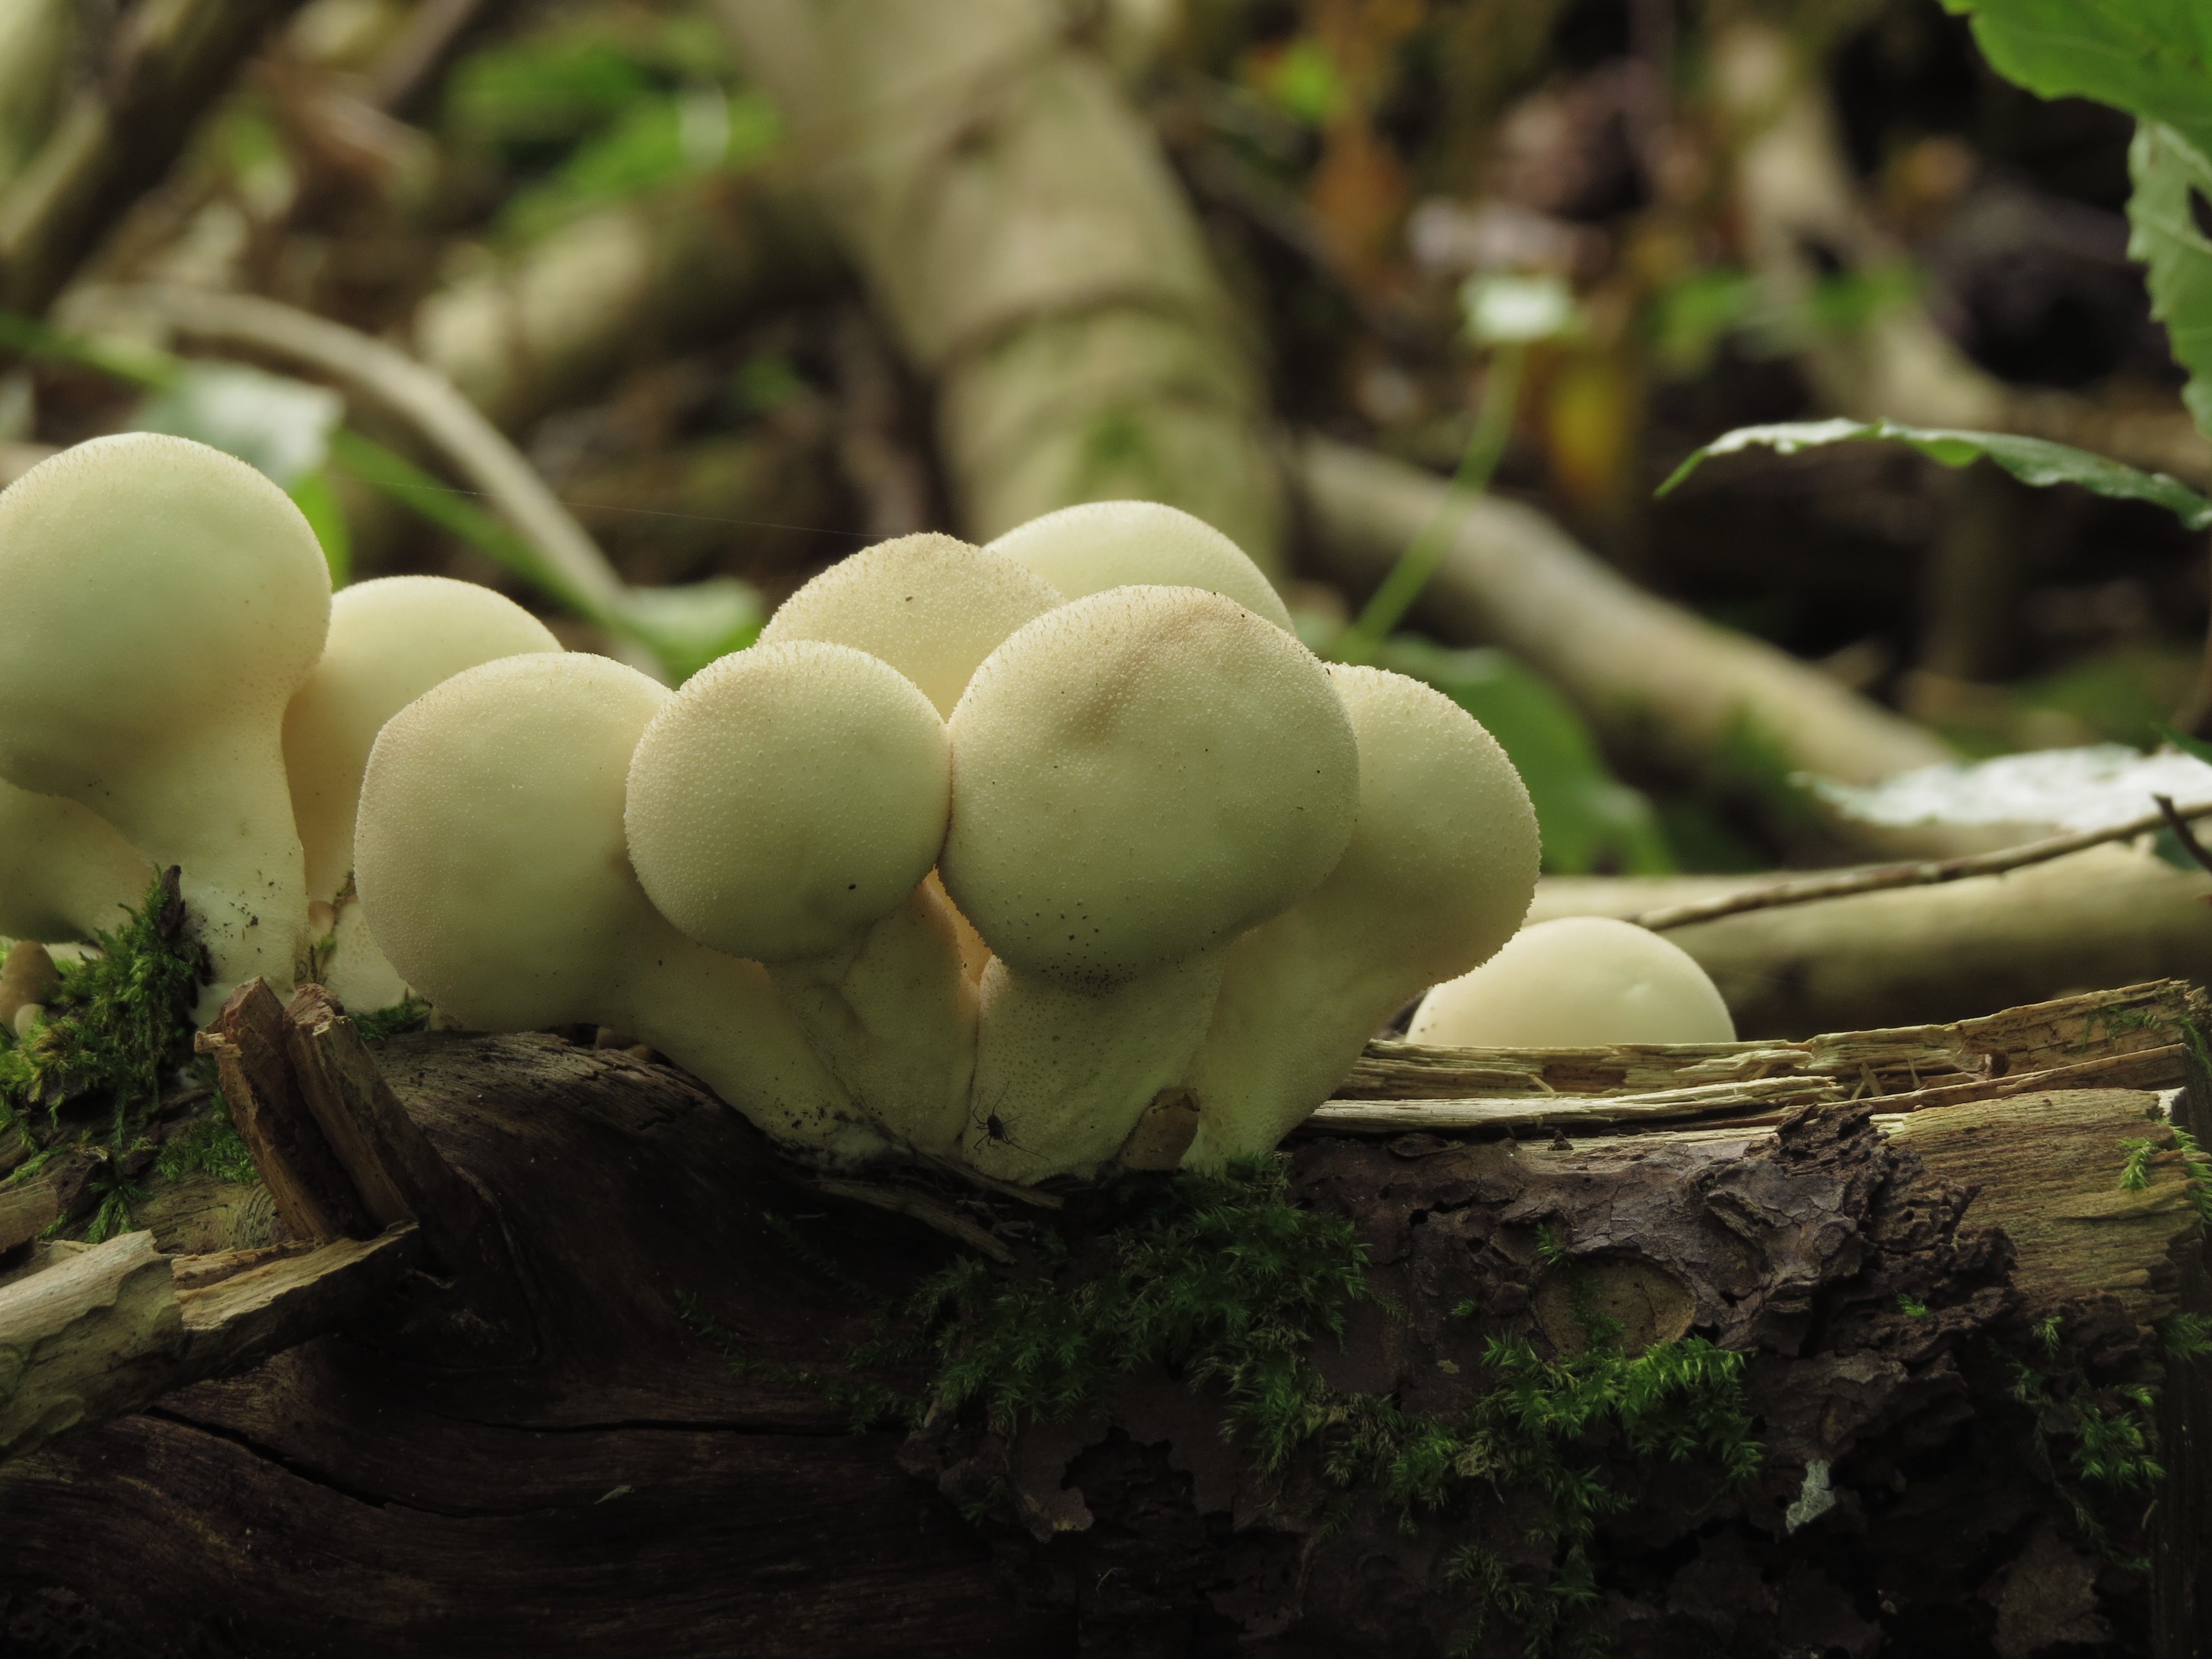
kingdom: Fungi
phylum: Basidiomycota
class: Agaricomycetes
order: Agaricales
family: Lycoperdaceae
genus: Apioperdon
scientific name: Apioperdon pyriforme
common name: Pear-shaped puffball
